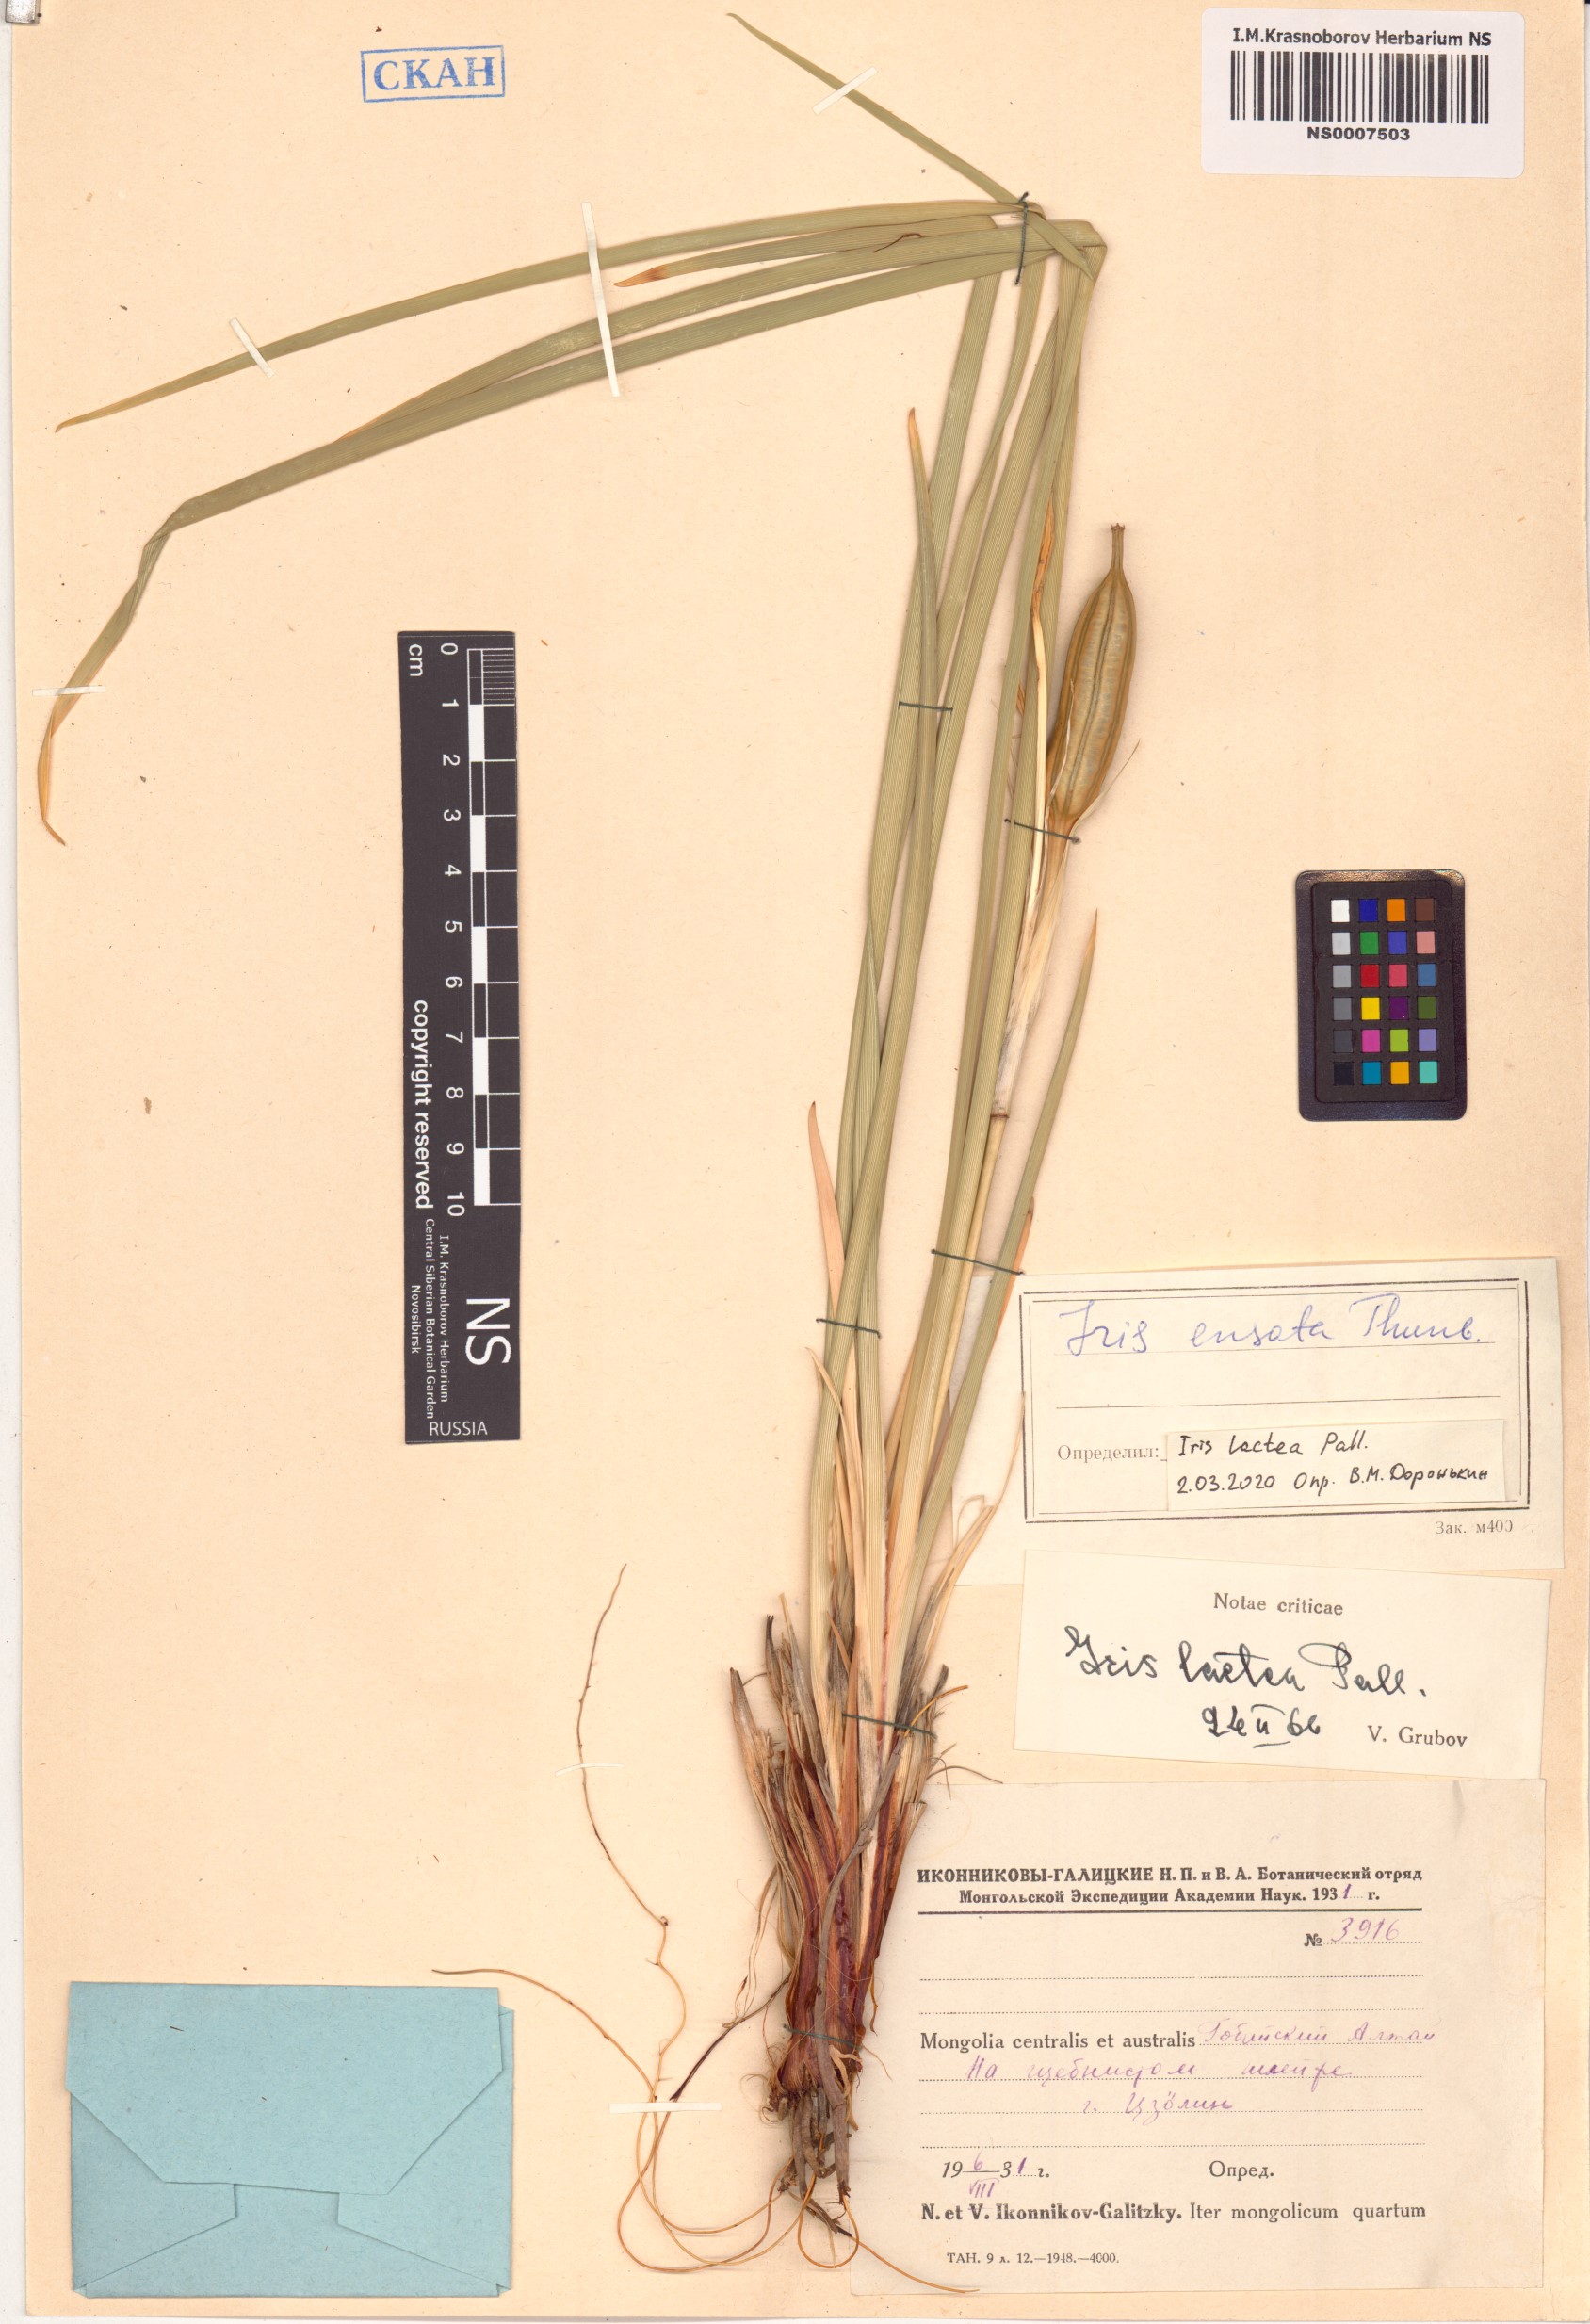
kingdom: Plantae
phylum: Tracheophyta
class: Liliopsida
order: Asparagales
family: Iridaceae
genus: Iris
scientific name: Iris lactea
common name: White-flower chinese iris
